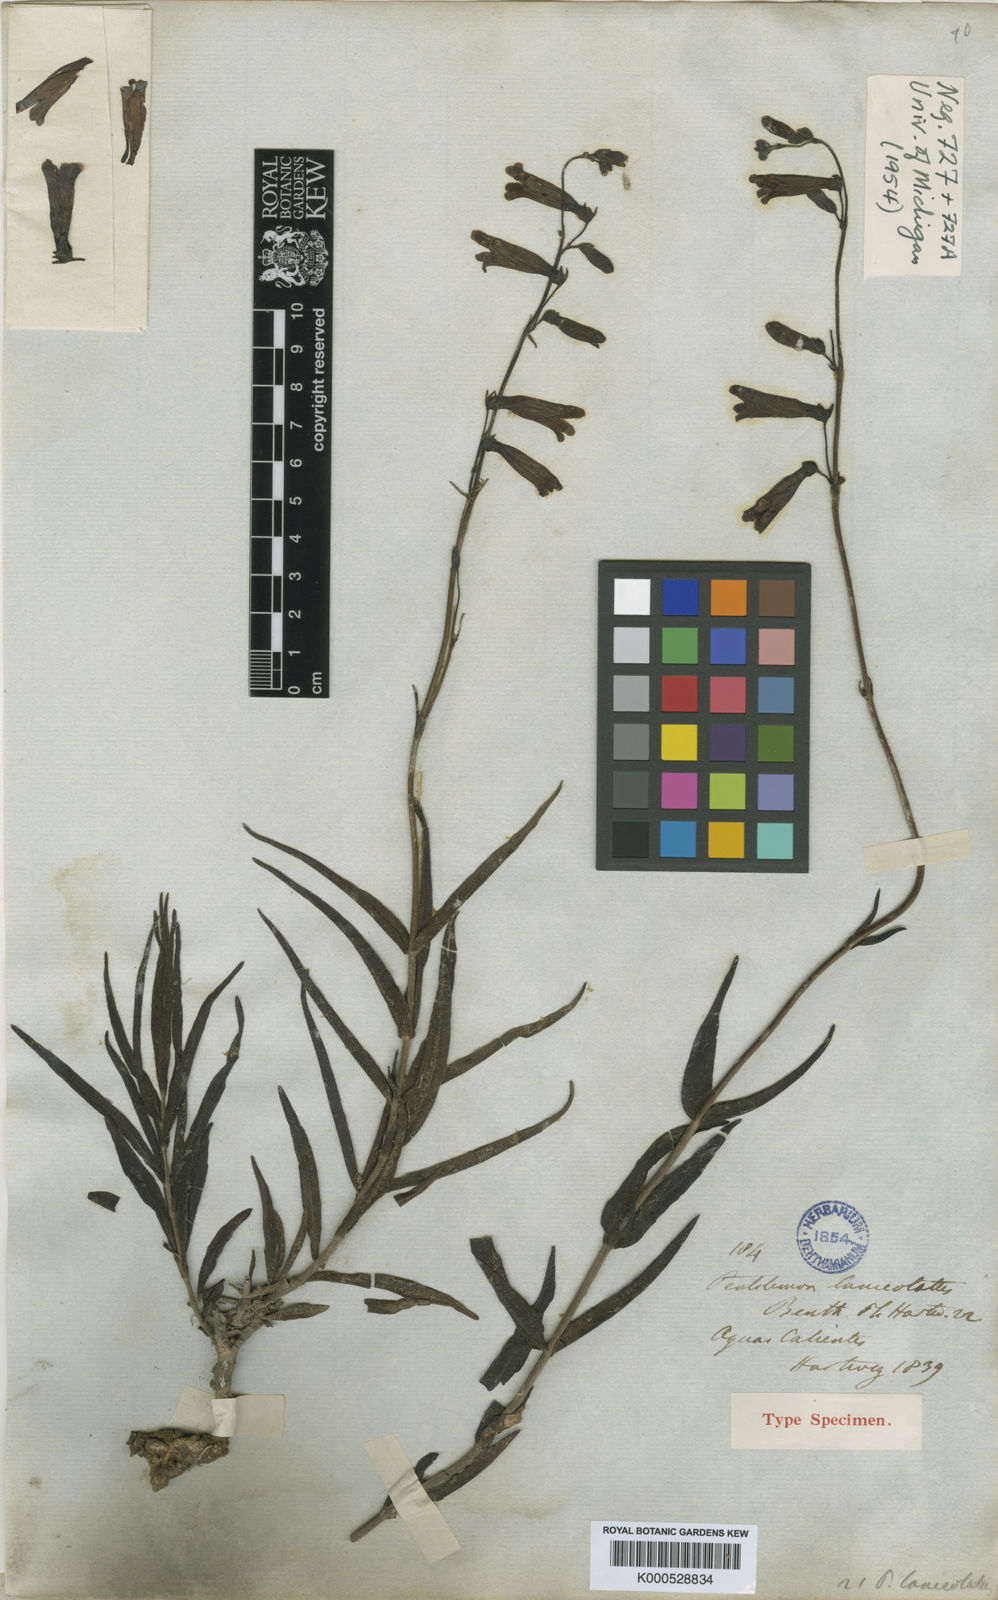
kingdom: Plantae
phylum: Tracheophyta
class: Magnoliopsida
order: Lamiales
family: Plantaginaceae
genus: Penstemon
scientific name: Penstemon lanceolatus
